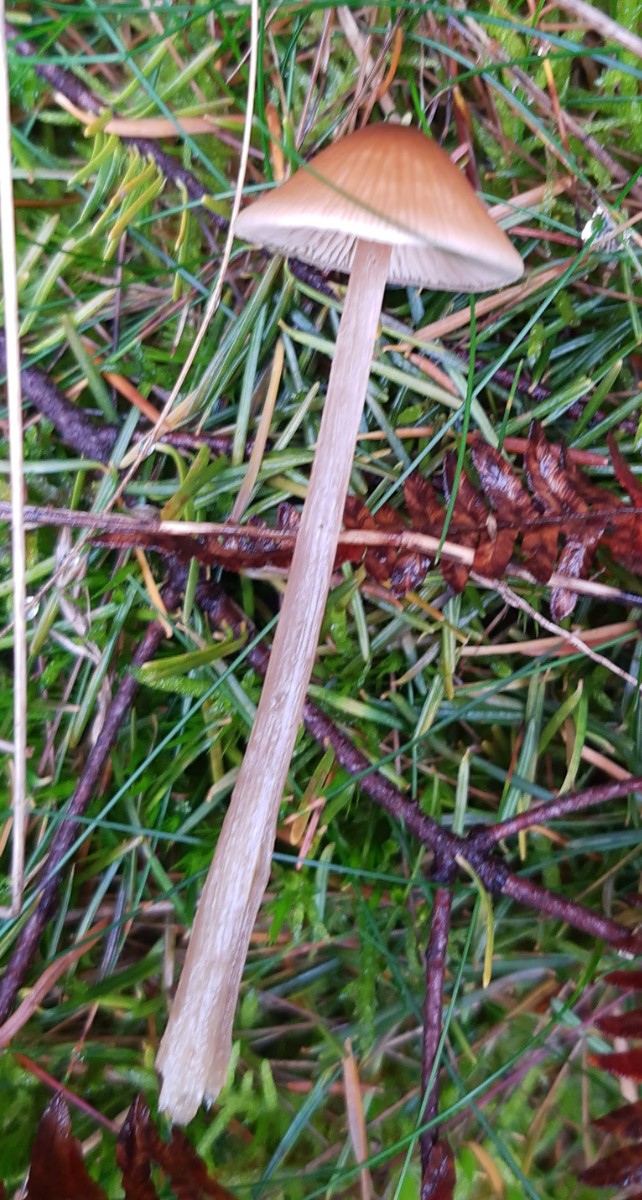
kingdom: Fungi
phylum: Basidiomycota
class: Agaricomycetes
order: Agaricales
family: Entolomataceae
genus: Entoloma
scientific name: Entoloma cetratum
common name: voks-rødblad
